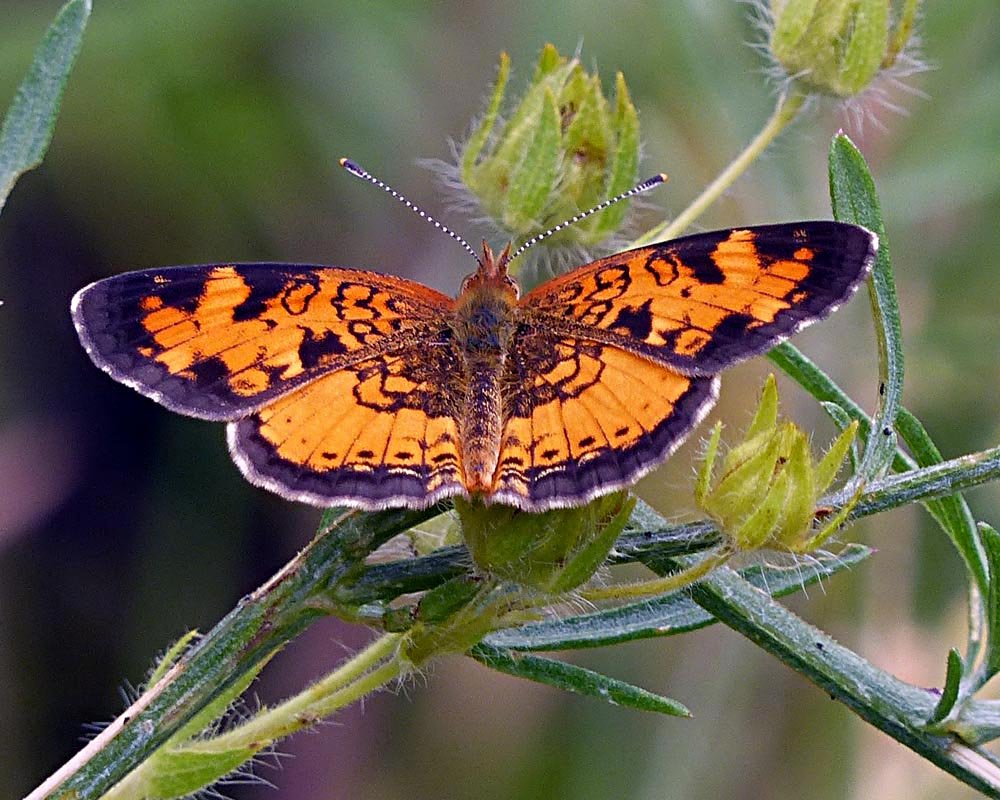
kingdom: Animalia
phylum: Arthropoda
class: Insecta
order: Lepidoptera
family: Nymphalidae
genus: Phyciodes
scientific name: Phyciodes tharos
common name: Northern Crescent
